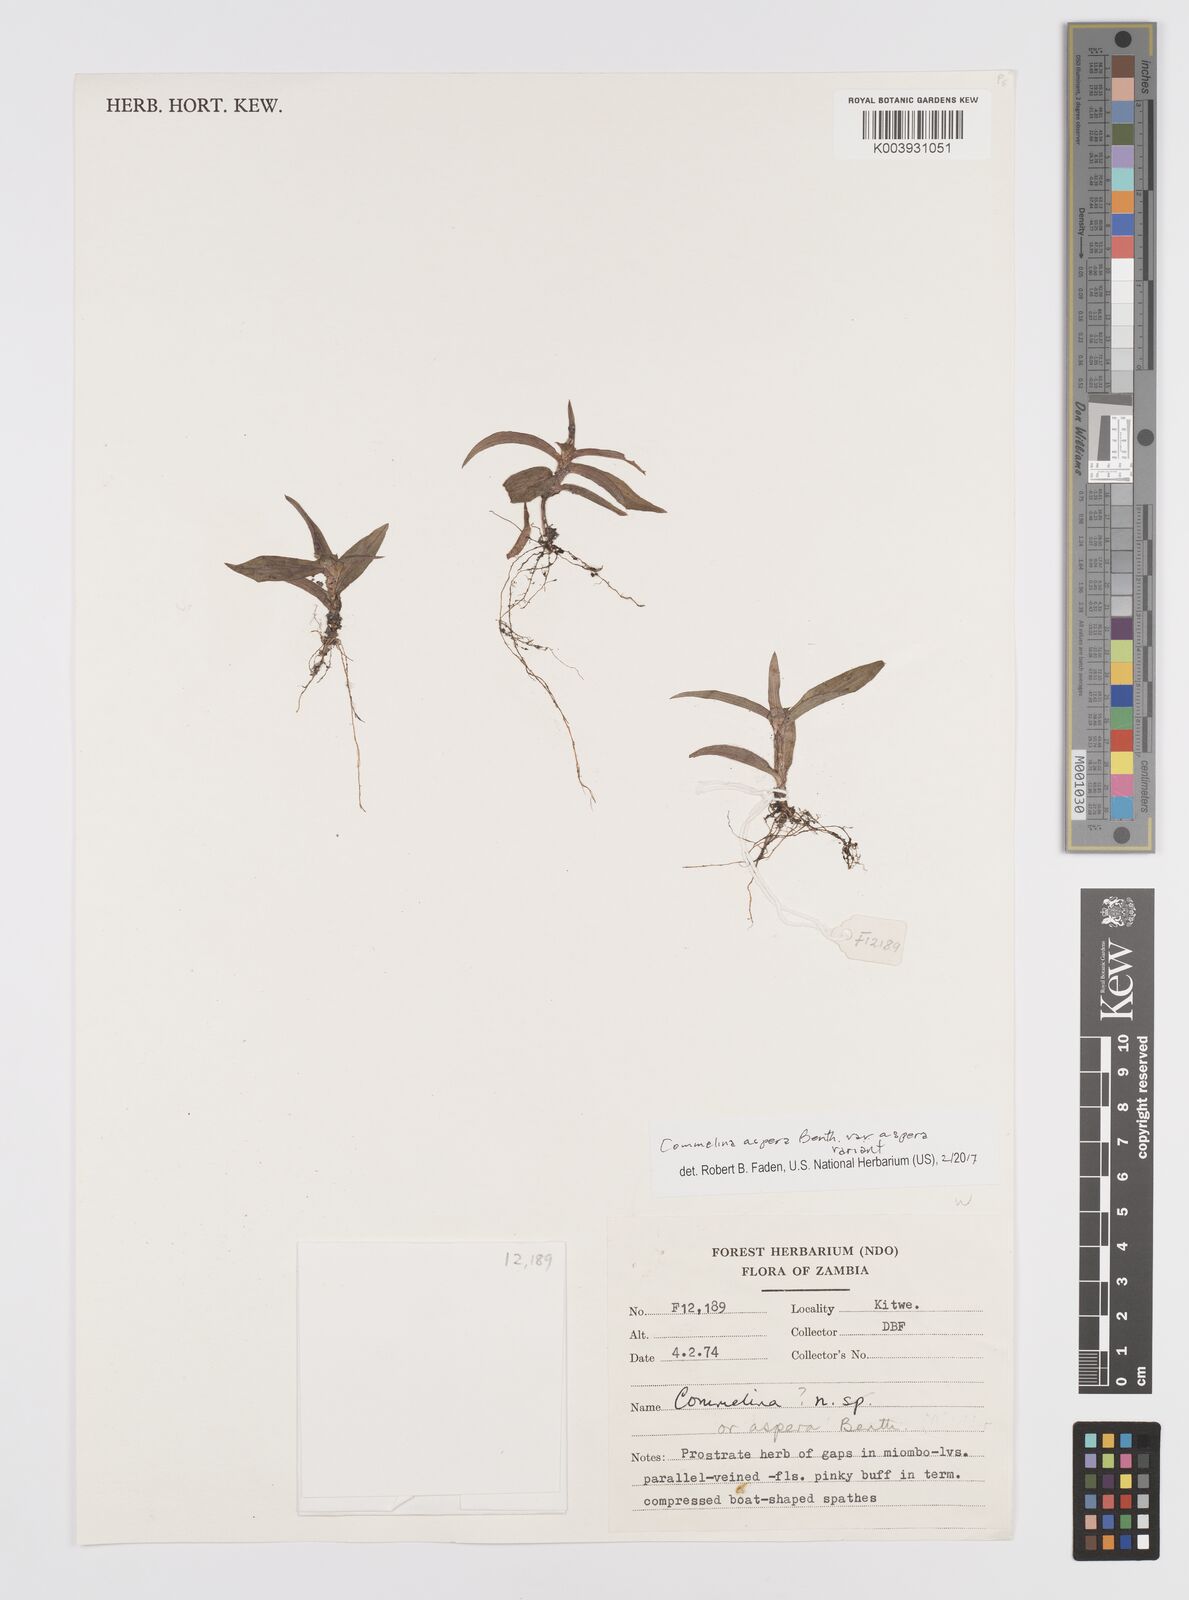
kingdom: Plantae
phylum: Tracheophyta
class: Liliopsida
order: Commelinales
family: Commelinaceae
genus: Commelina
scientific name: Commelina aspera
